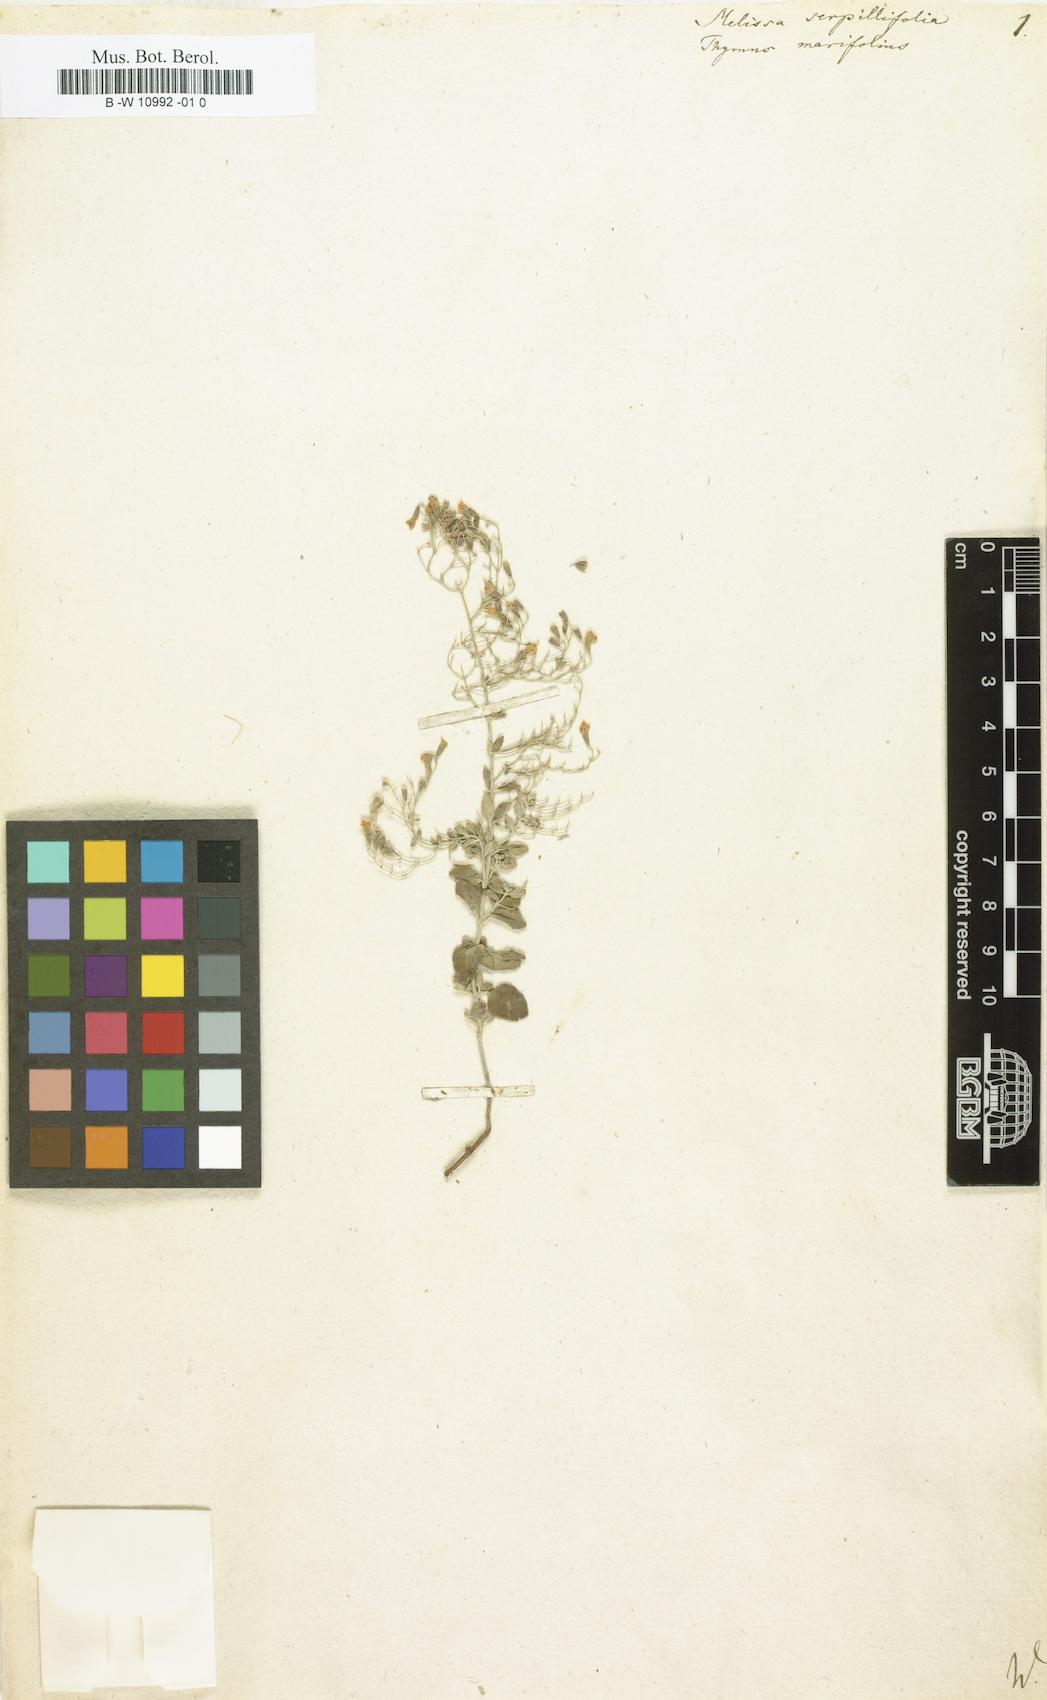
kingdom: Plantae
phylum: Tracheophyta
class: Magnoliopsida
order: Lamiales
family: Lamiaceae
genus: Clinopodium
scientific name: Clinopodium serpyllifolium
